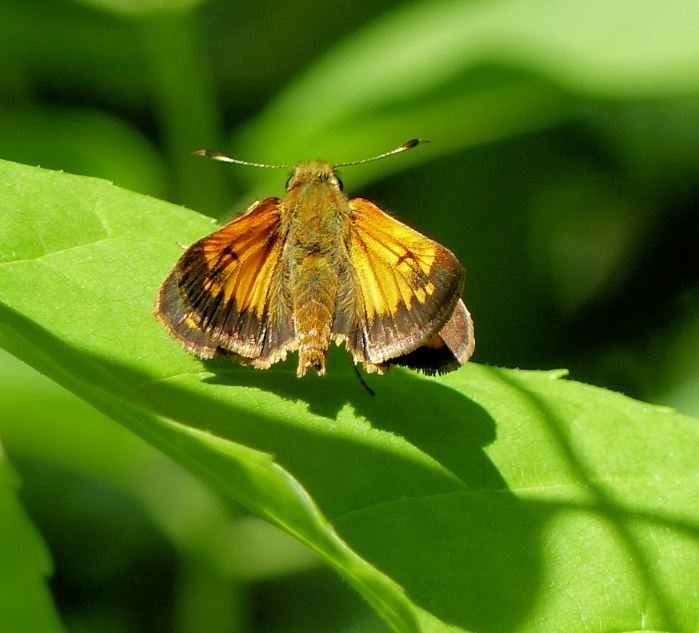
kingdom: Animalia
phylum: Arthropoda
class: Insecta
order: Lepidoptera
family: Hesperiidae
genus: Lon
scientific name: Lon hobomok
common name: Hobomok Skipper
